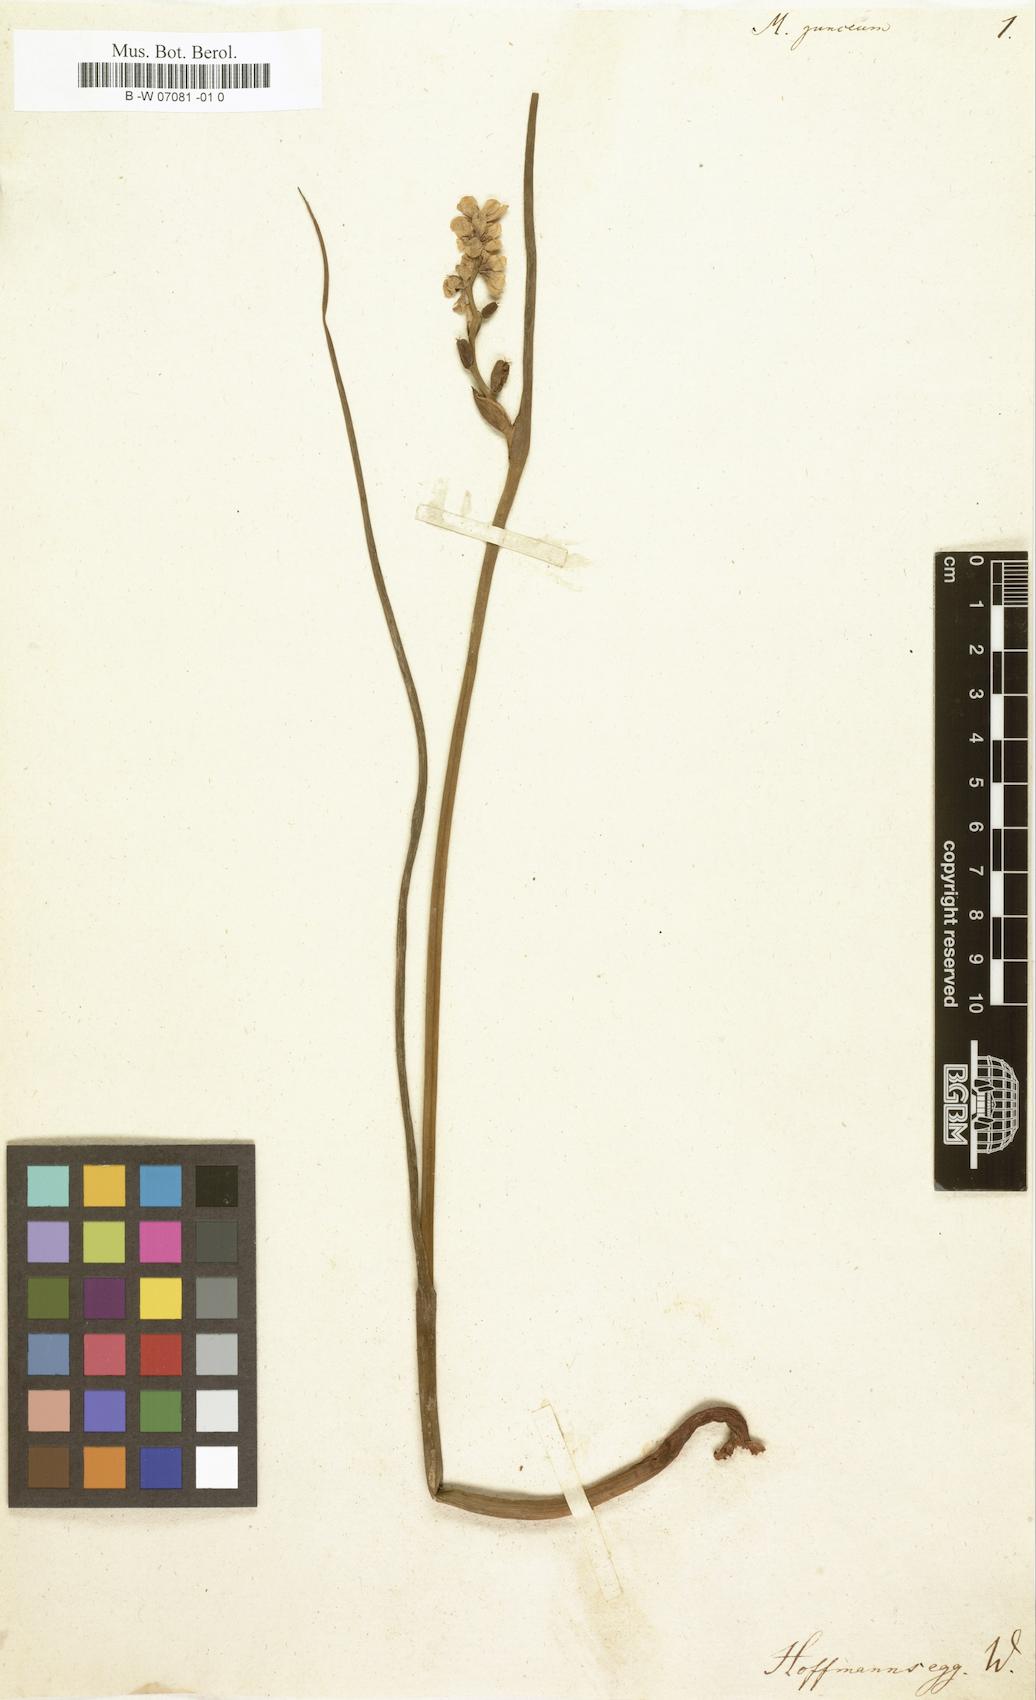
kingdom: Plantae
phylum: Tracheophyta
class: Liliopsida
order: Liliales
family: Colchicaceae
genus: Wurmbea
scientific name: Wurmbea stricta
